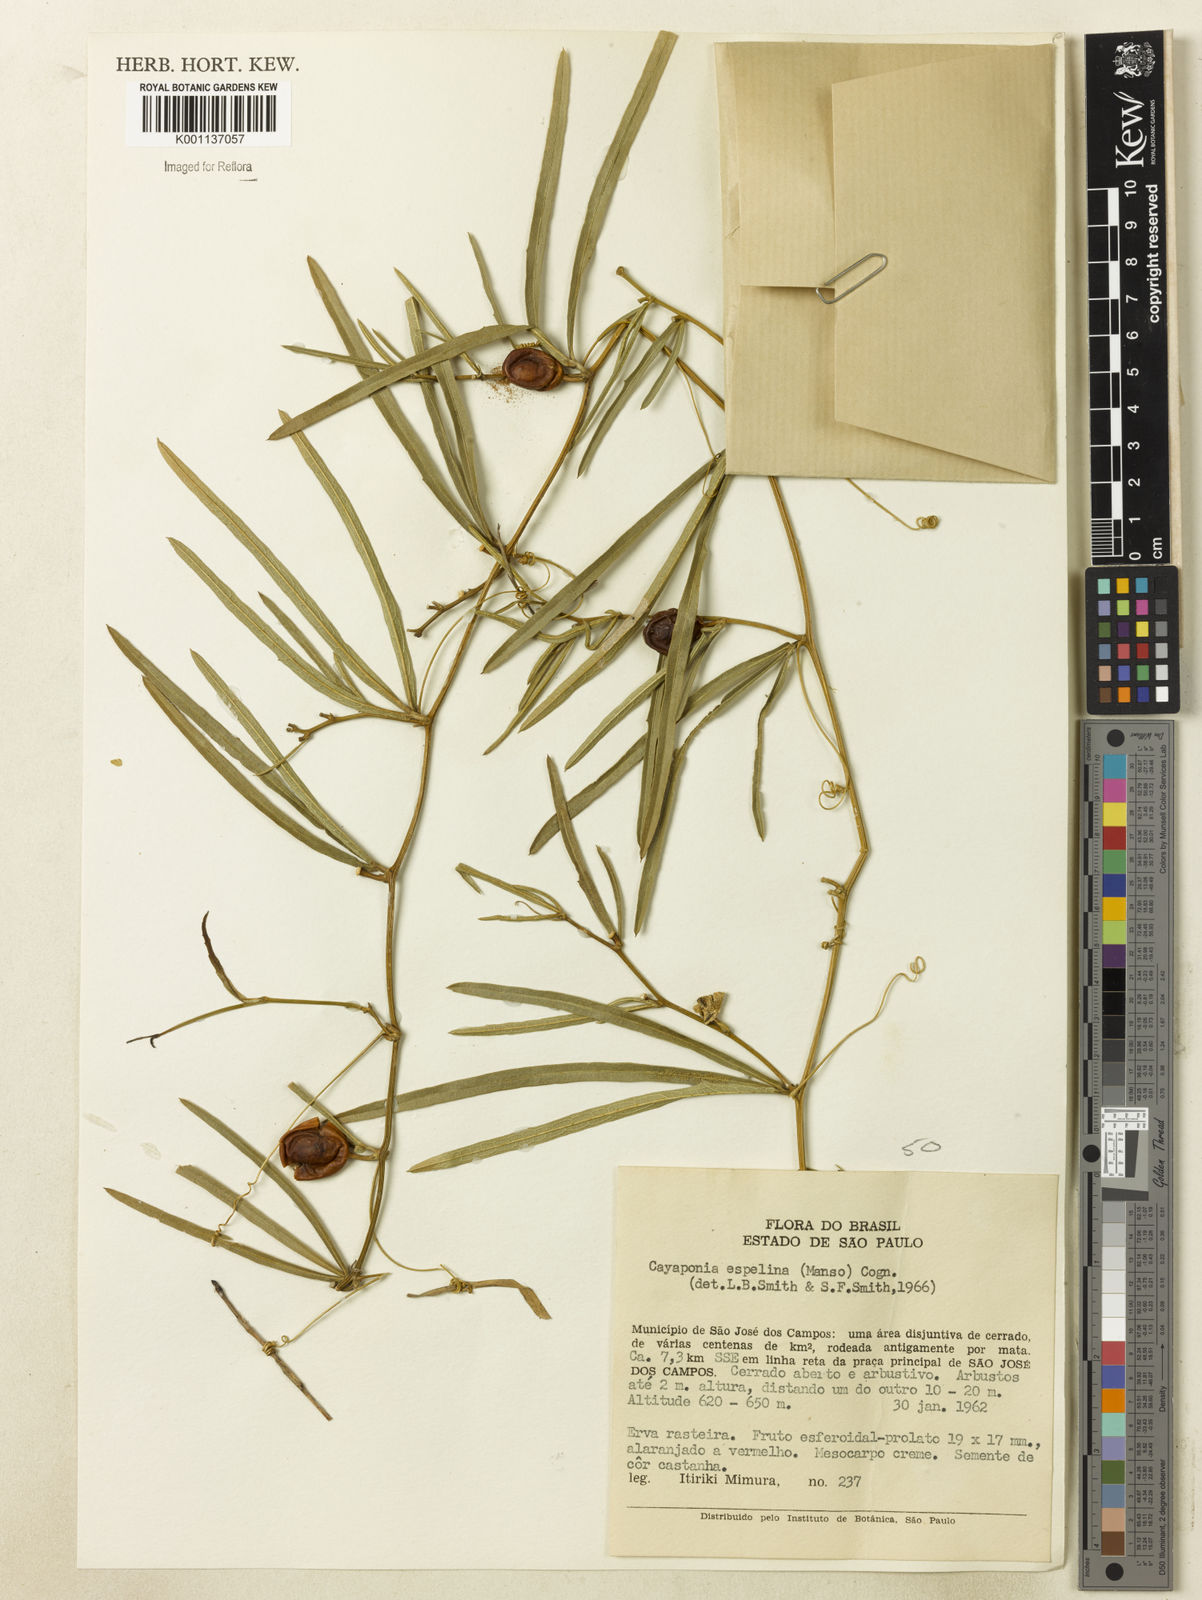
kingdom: Plantae
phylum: Tracheophyta
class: Magnoliopsida
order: Cucurbitales
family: Cucurbitaceae
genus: Cayaponia
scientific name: Cayaponia espelina
